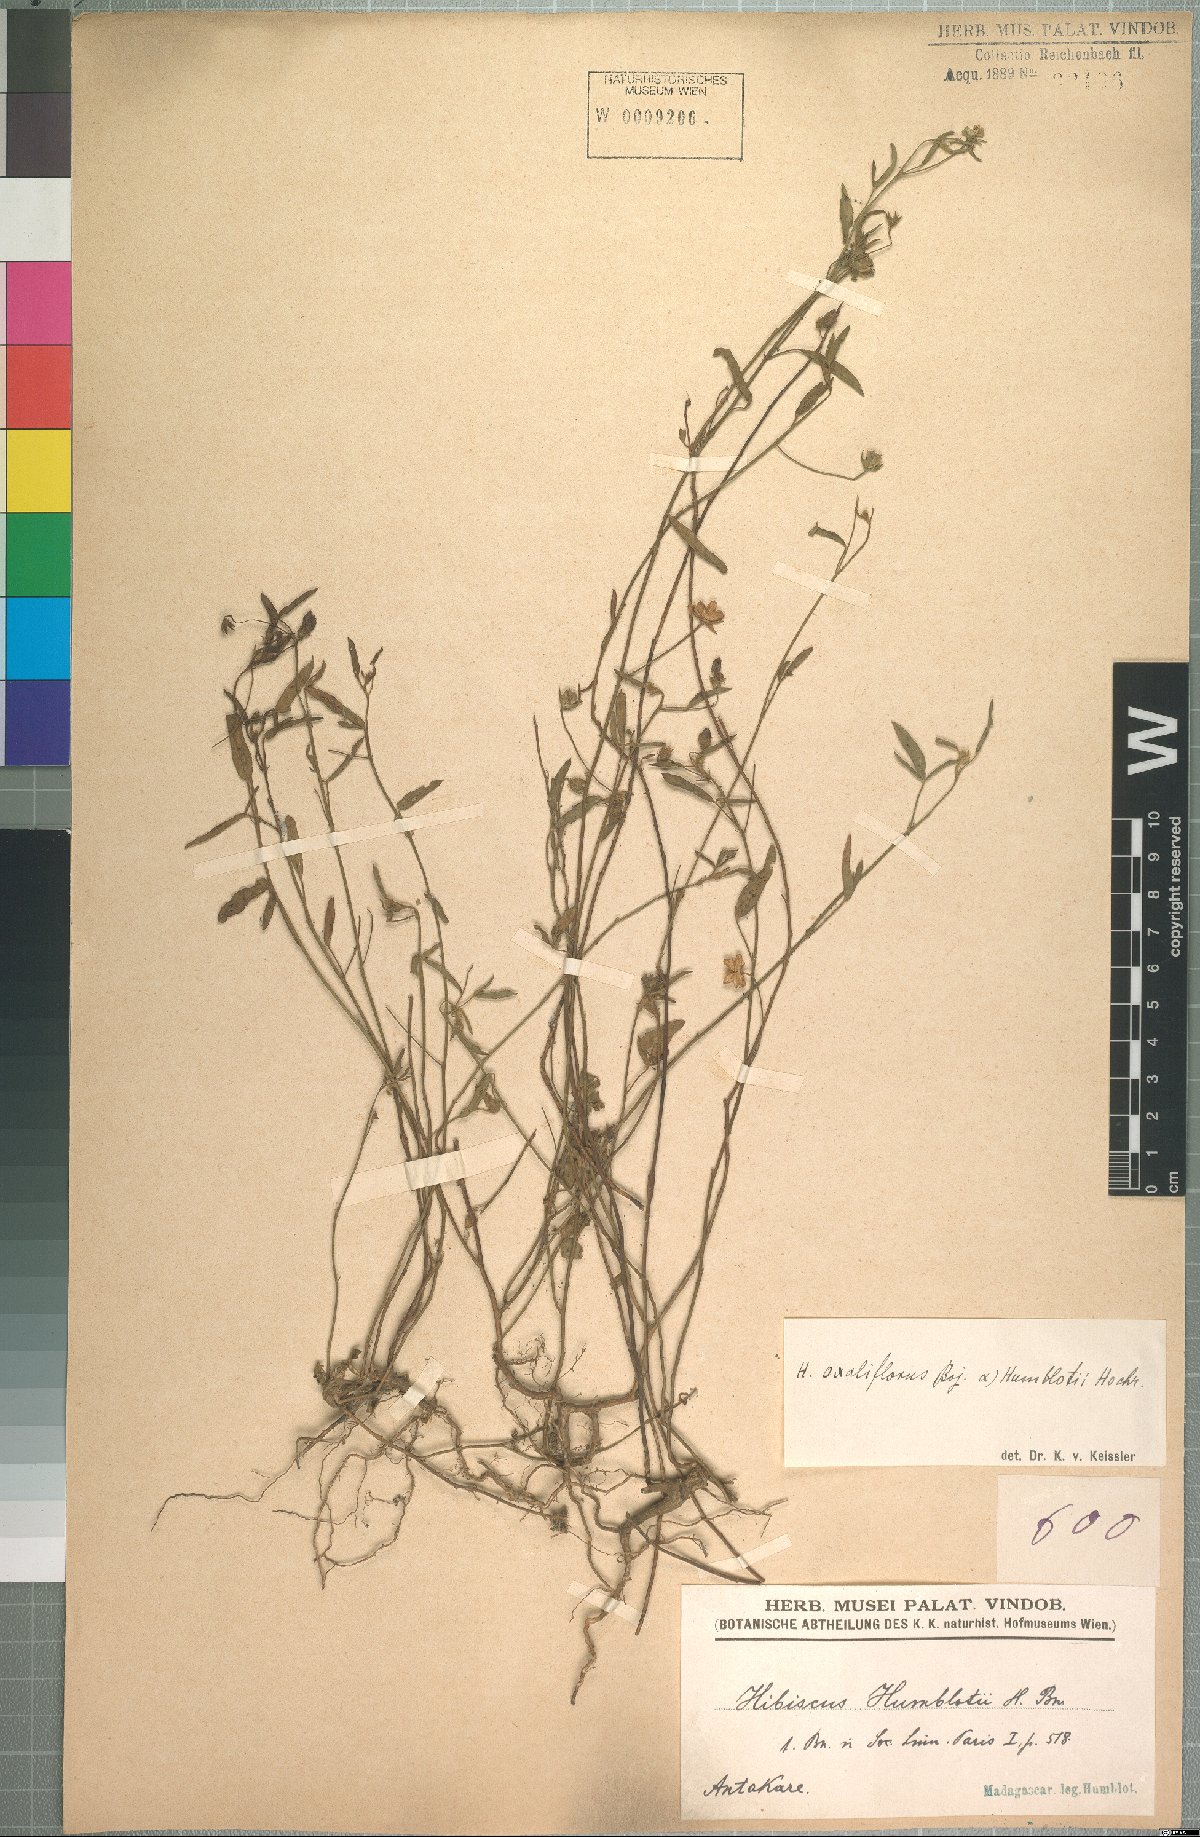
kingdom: Plantae
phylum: Tracheophyta
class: Magnoliopsida
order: Malvales
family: Malvaceae
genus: Hibiscus
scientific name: Hibiscus oxaliflorus
